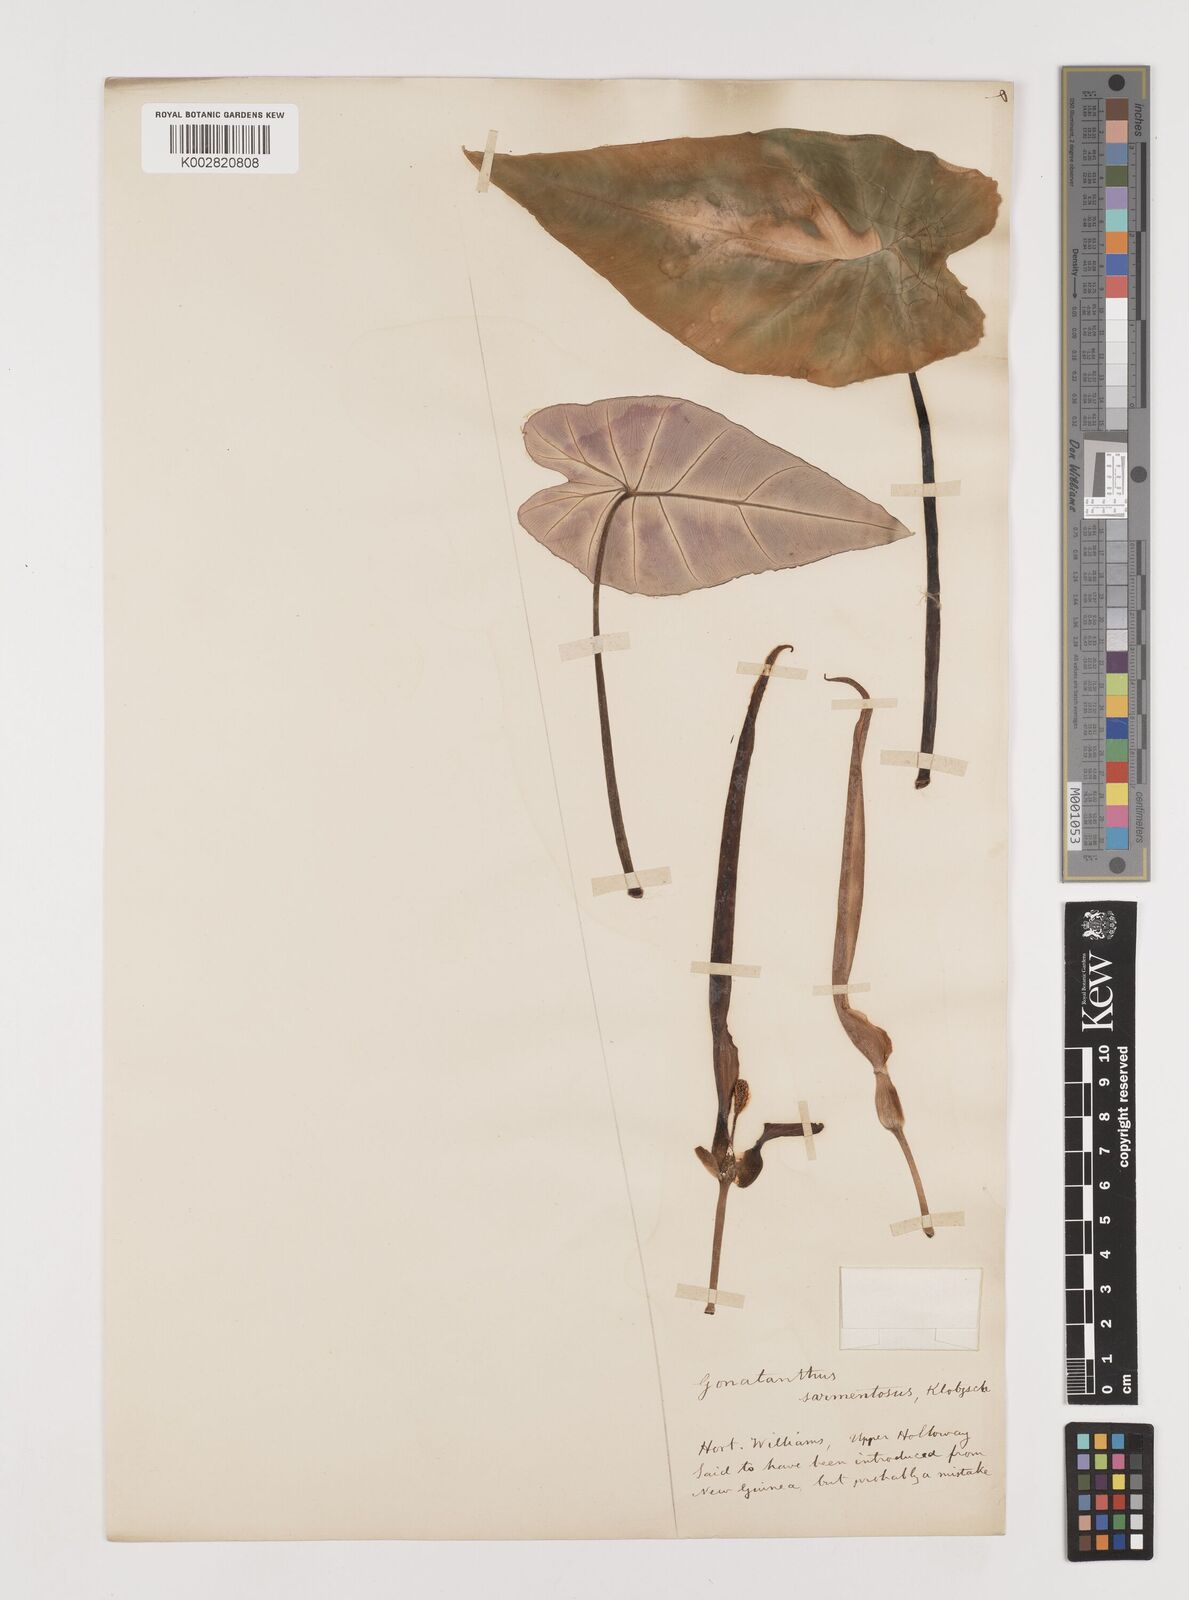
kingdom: Plantae
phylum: Tracheophyta
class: Liliopsida
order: Alismatales
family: Araceae
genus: Remusatia
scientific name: Remusatia pumila
